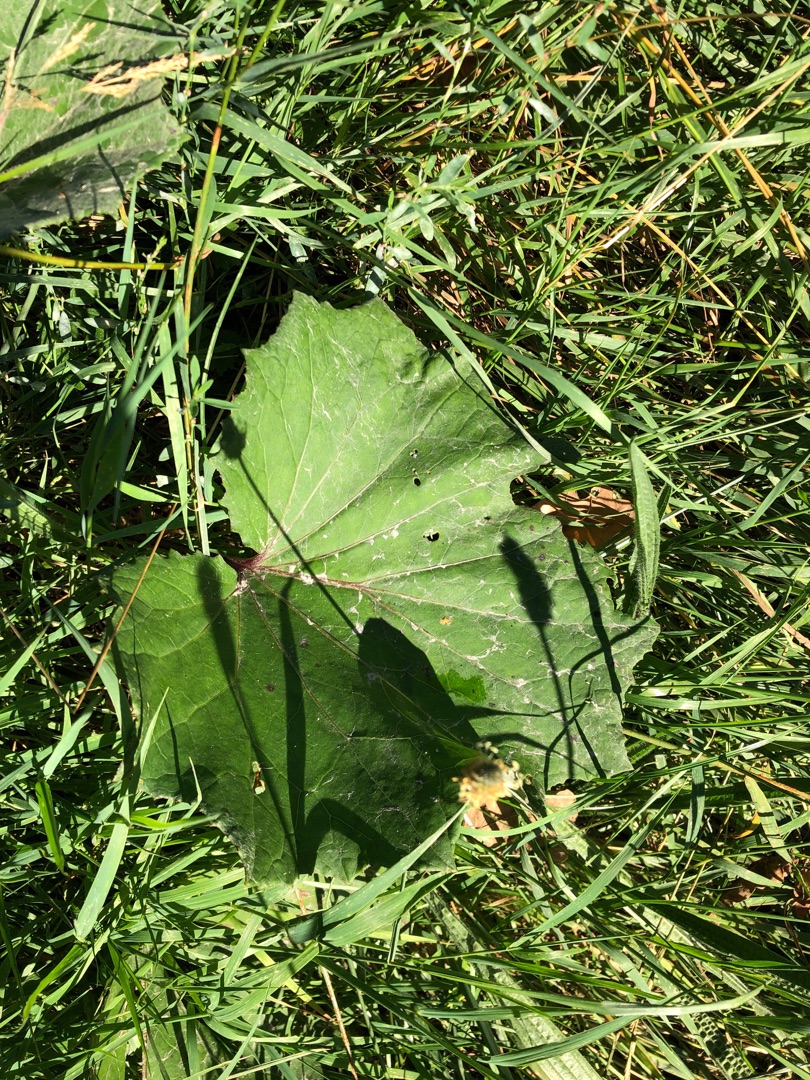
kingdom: Plantae
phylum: Tracheophyta
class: Magnoliopsida
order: Asterales
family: Asteraceae
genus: Tussilago
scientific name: Tussilago farfara
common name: Følfod
